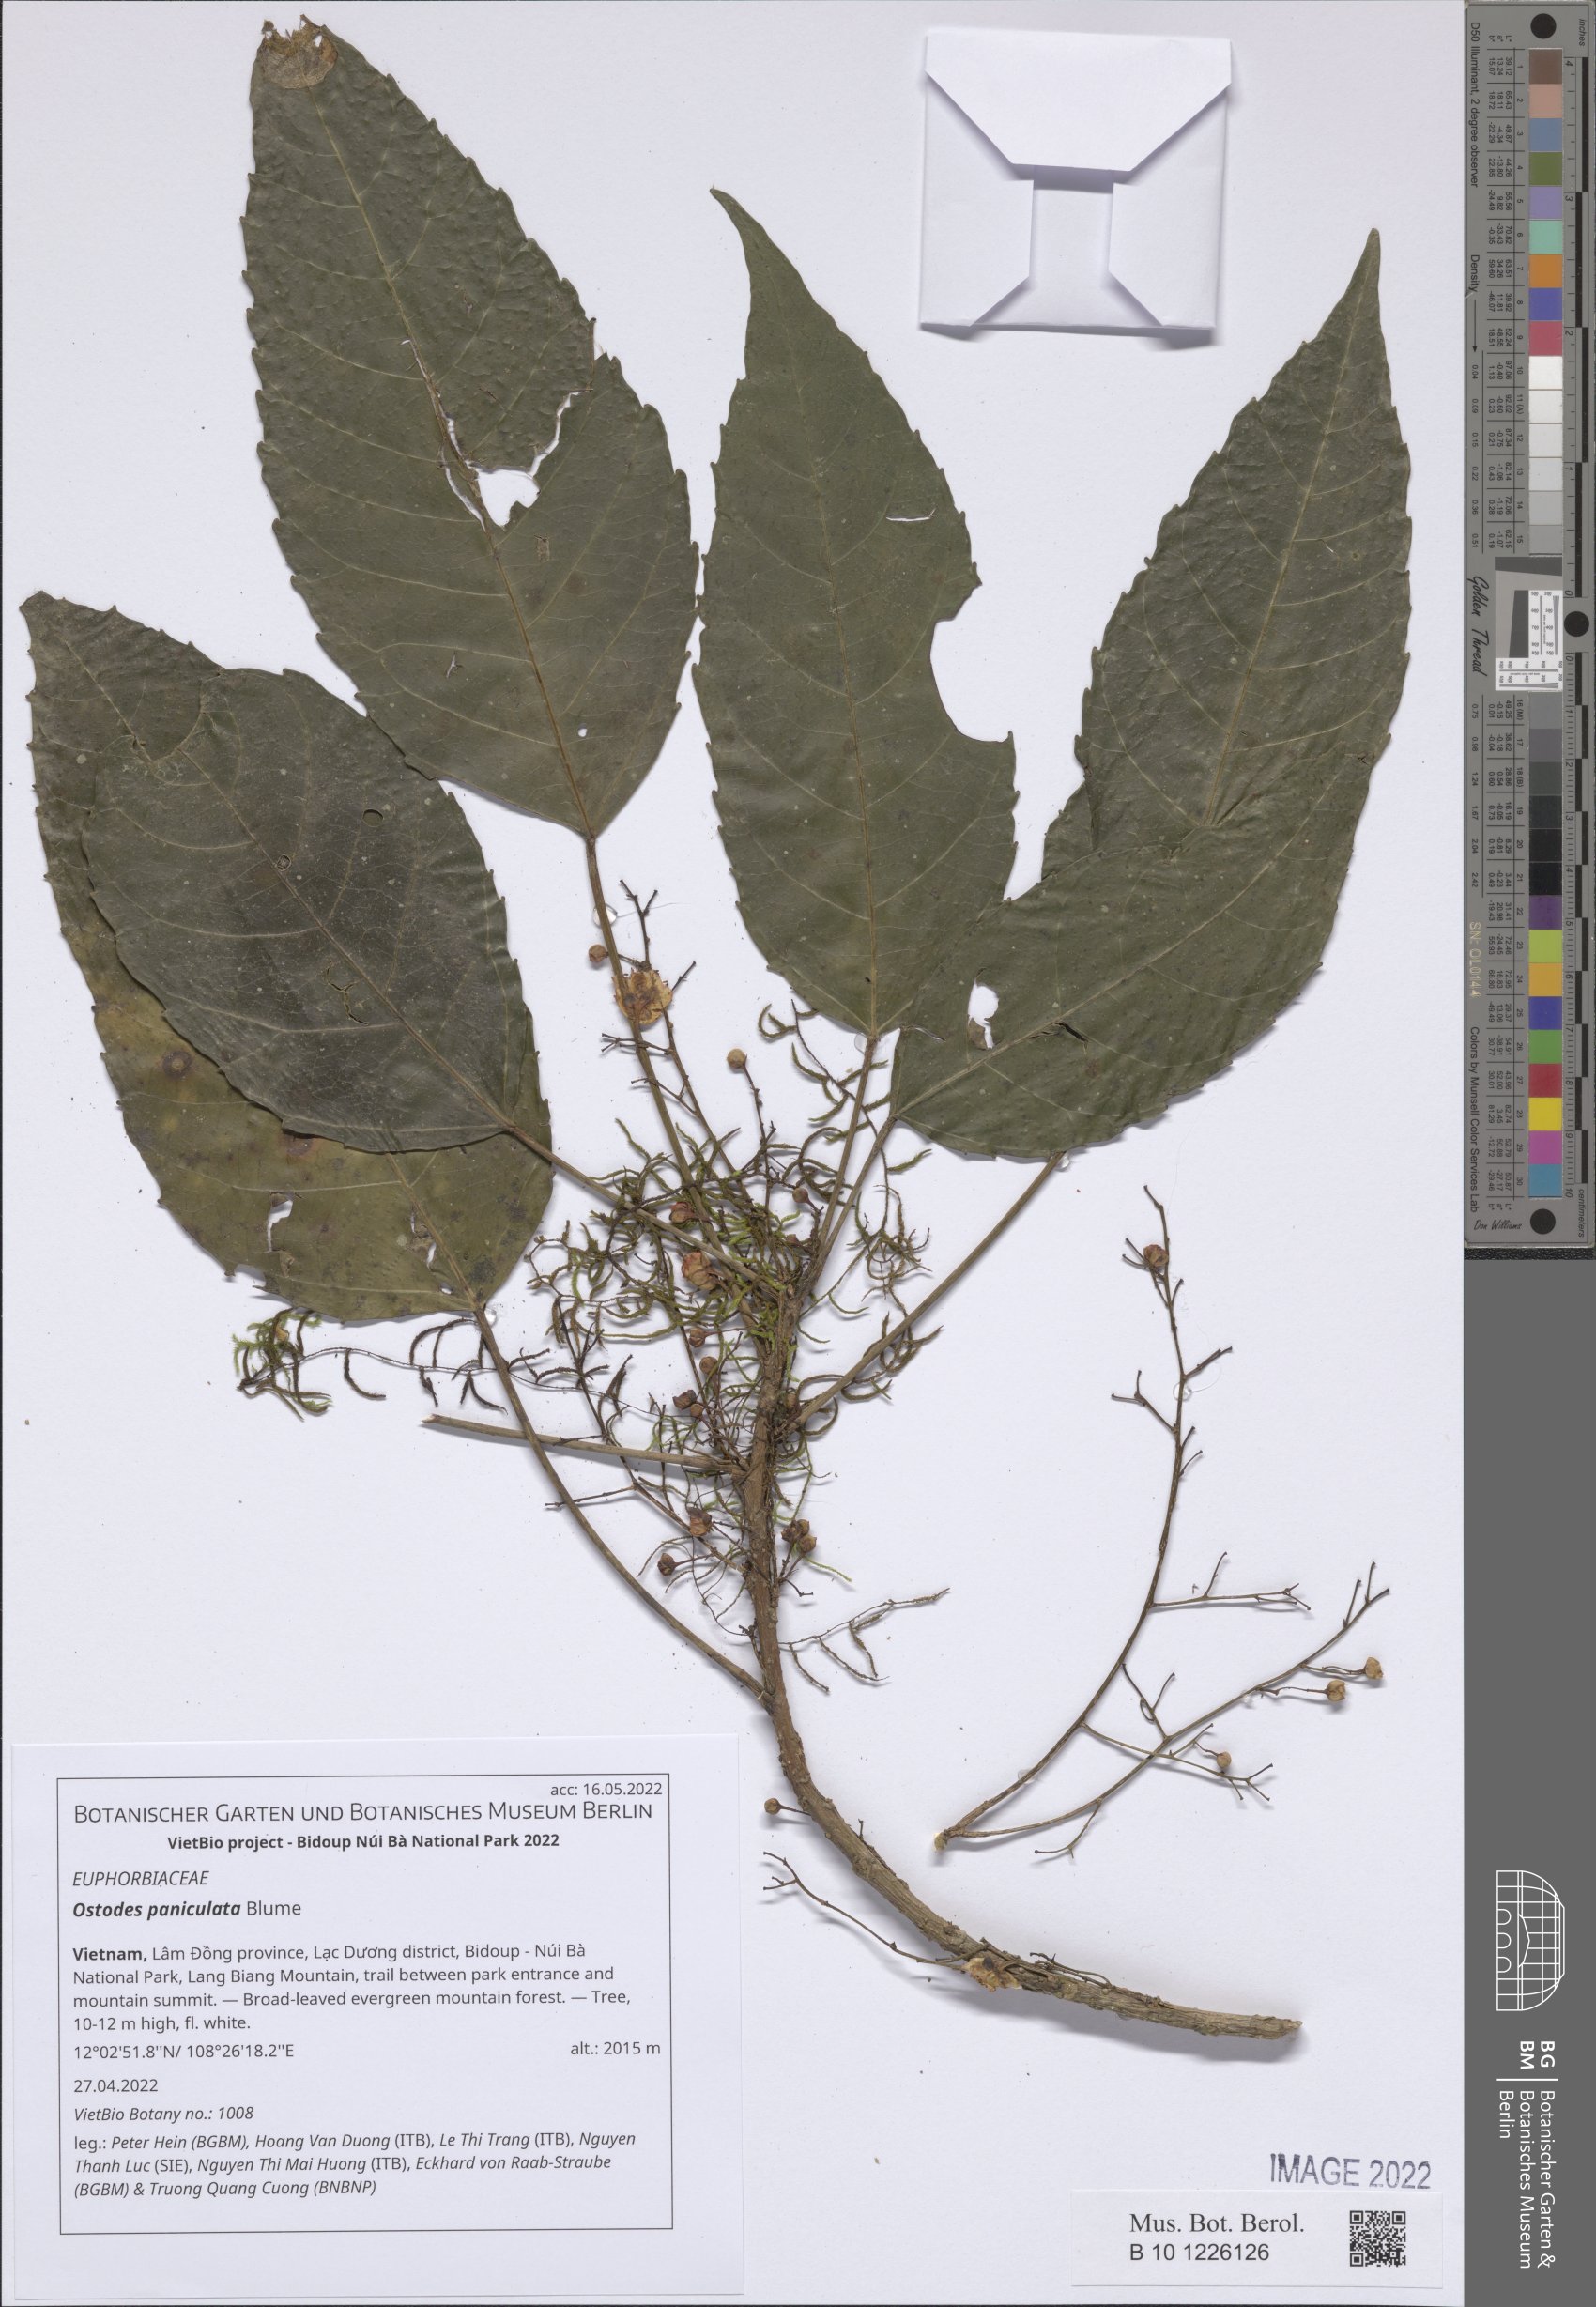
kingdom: Plantae
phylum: Tracheophyta
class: Magnoliopsida
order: Malpighiales
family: Euphorbiaceae
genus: Ostodes
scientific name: Ostodes paniculata
